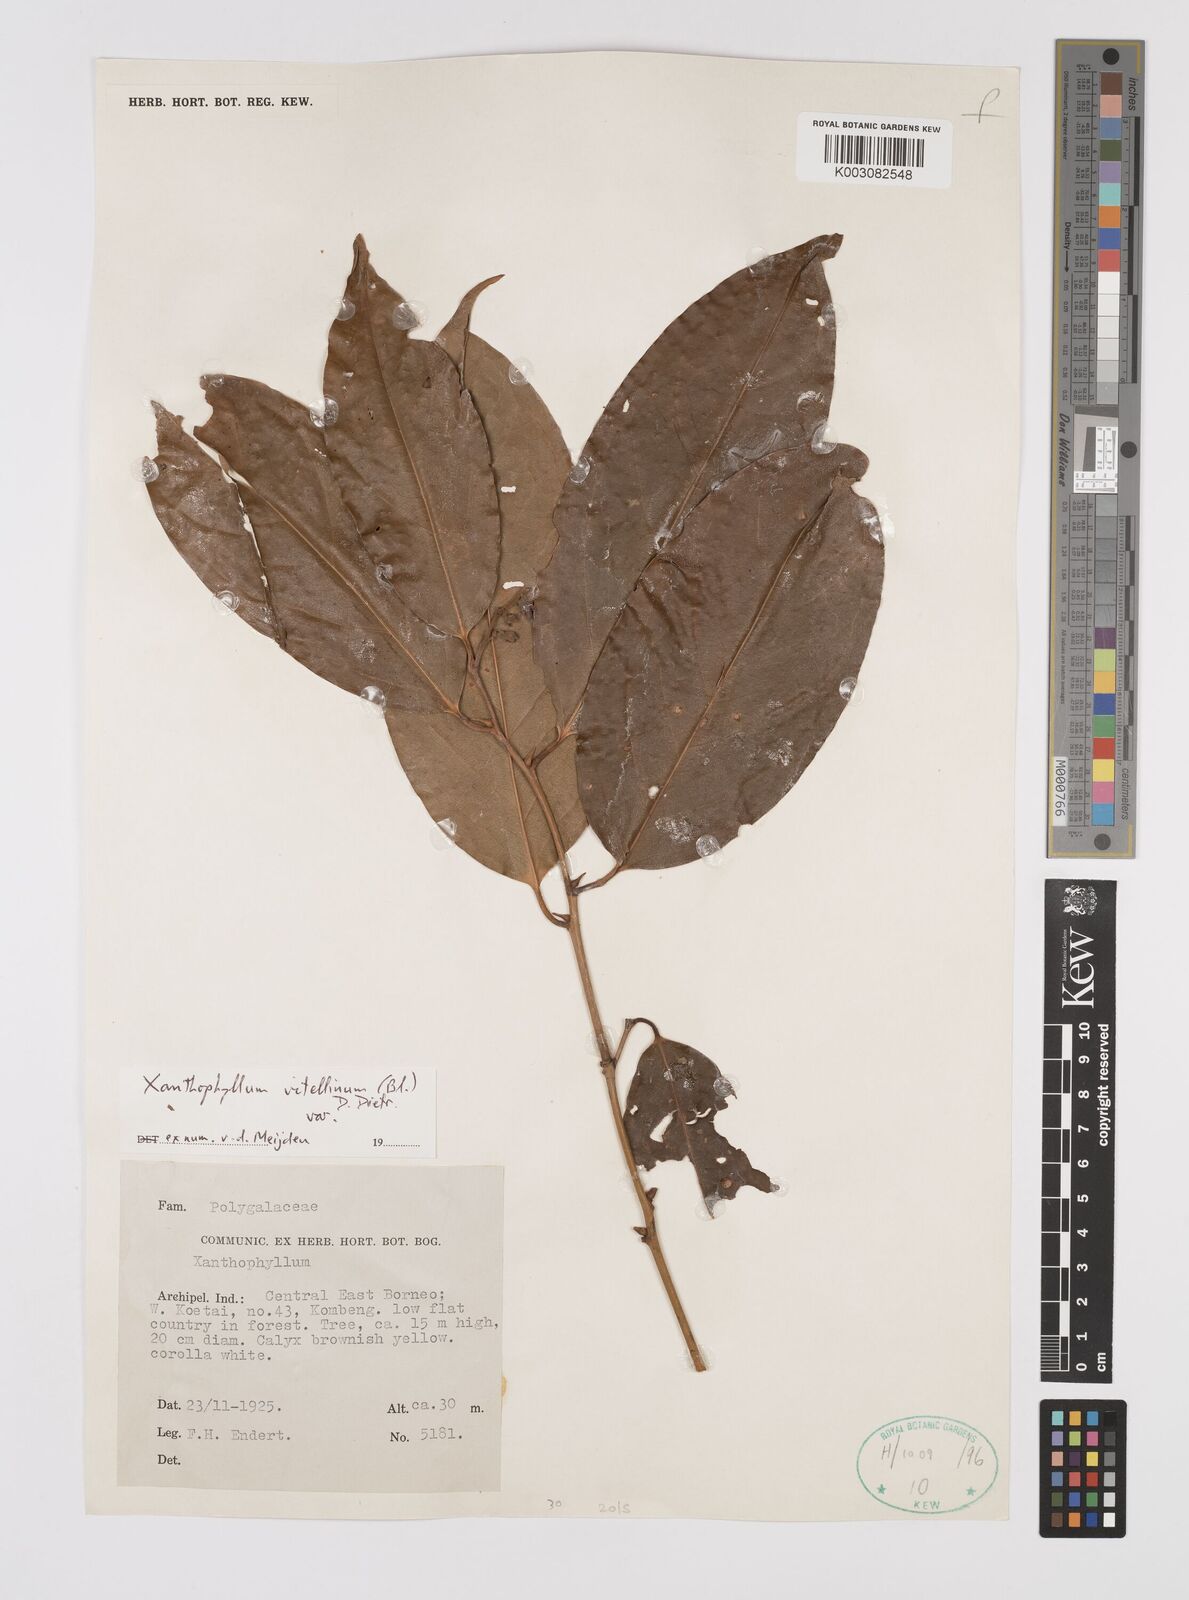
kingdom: Plantae
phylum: Tracheophyta
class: Magnoliopsida
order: Fabales
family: Polygalaceae
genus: Xanthophyllum
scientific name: Xanthophyllum vitellinum
